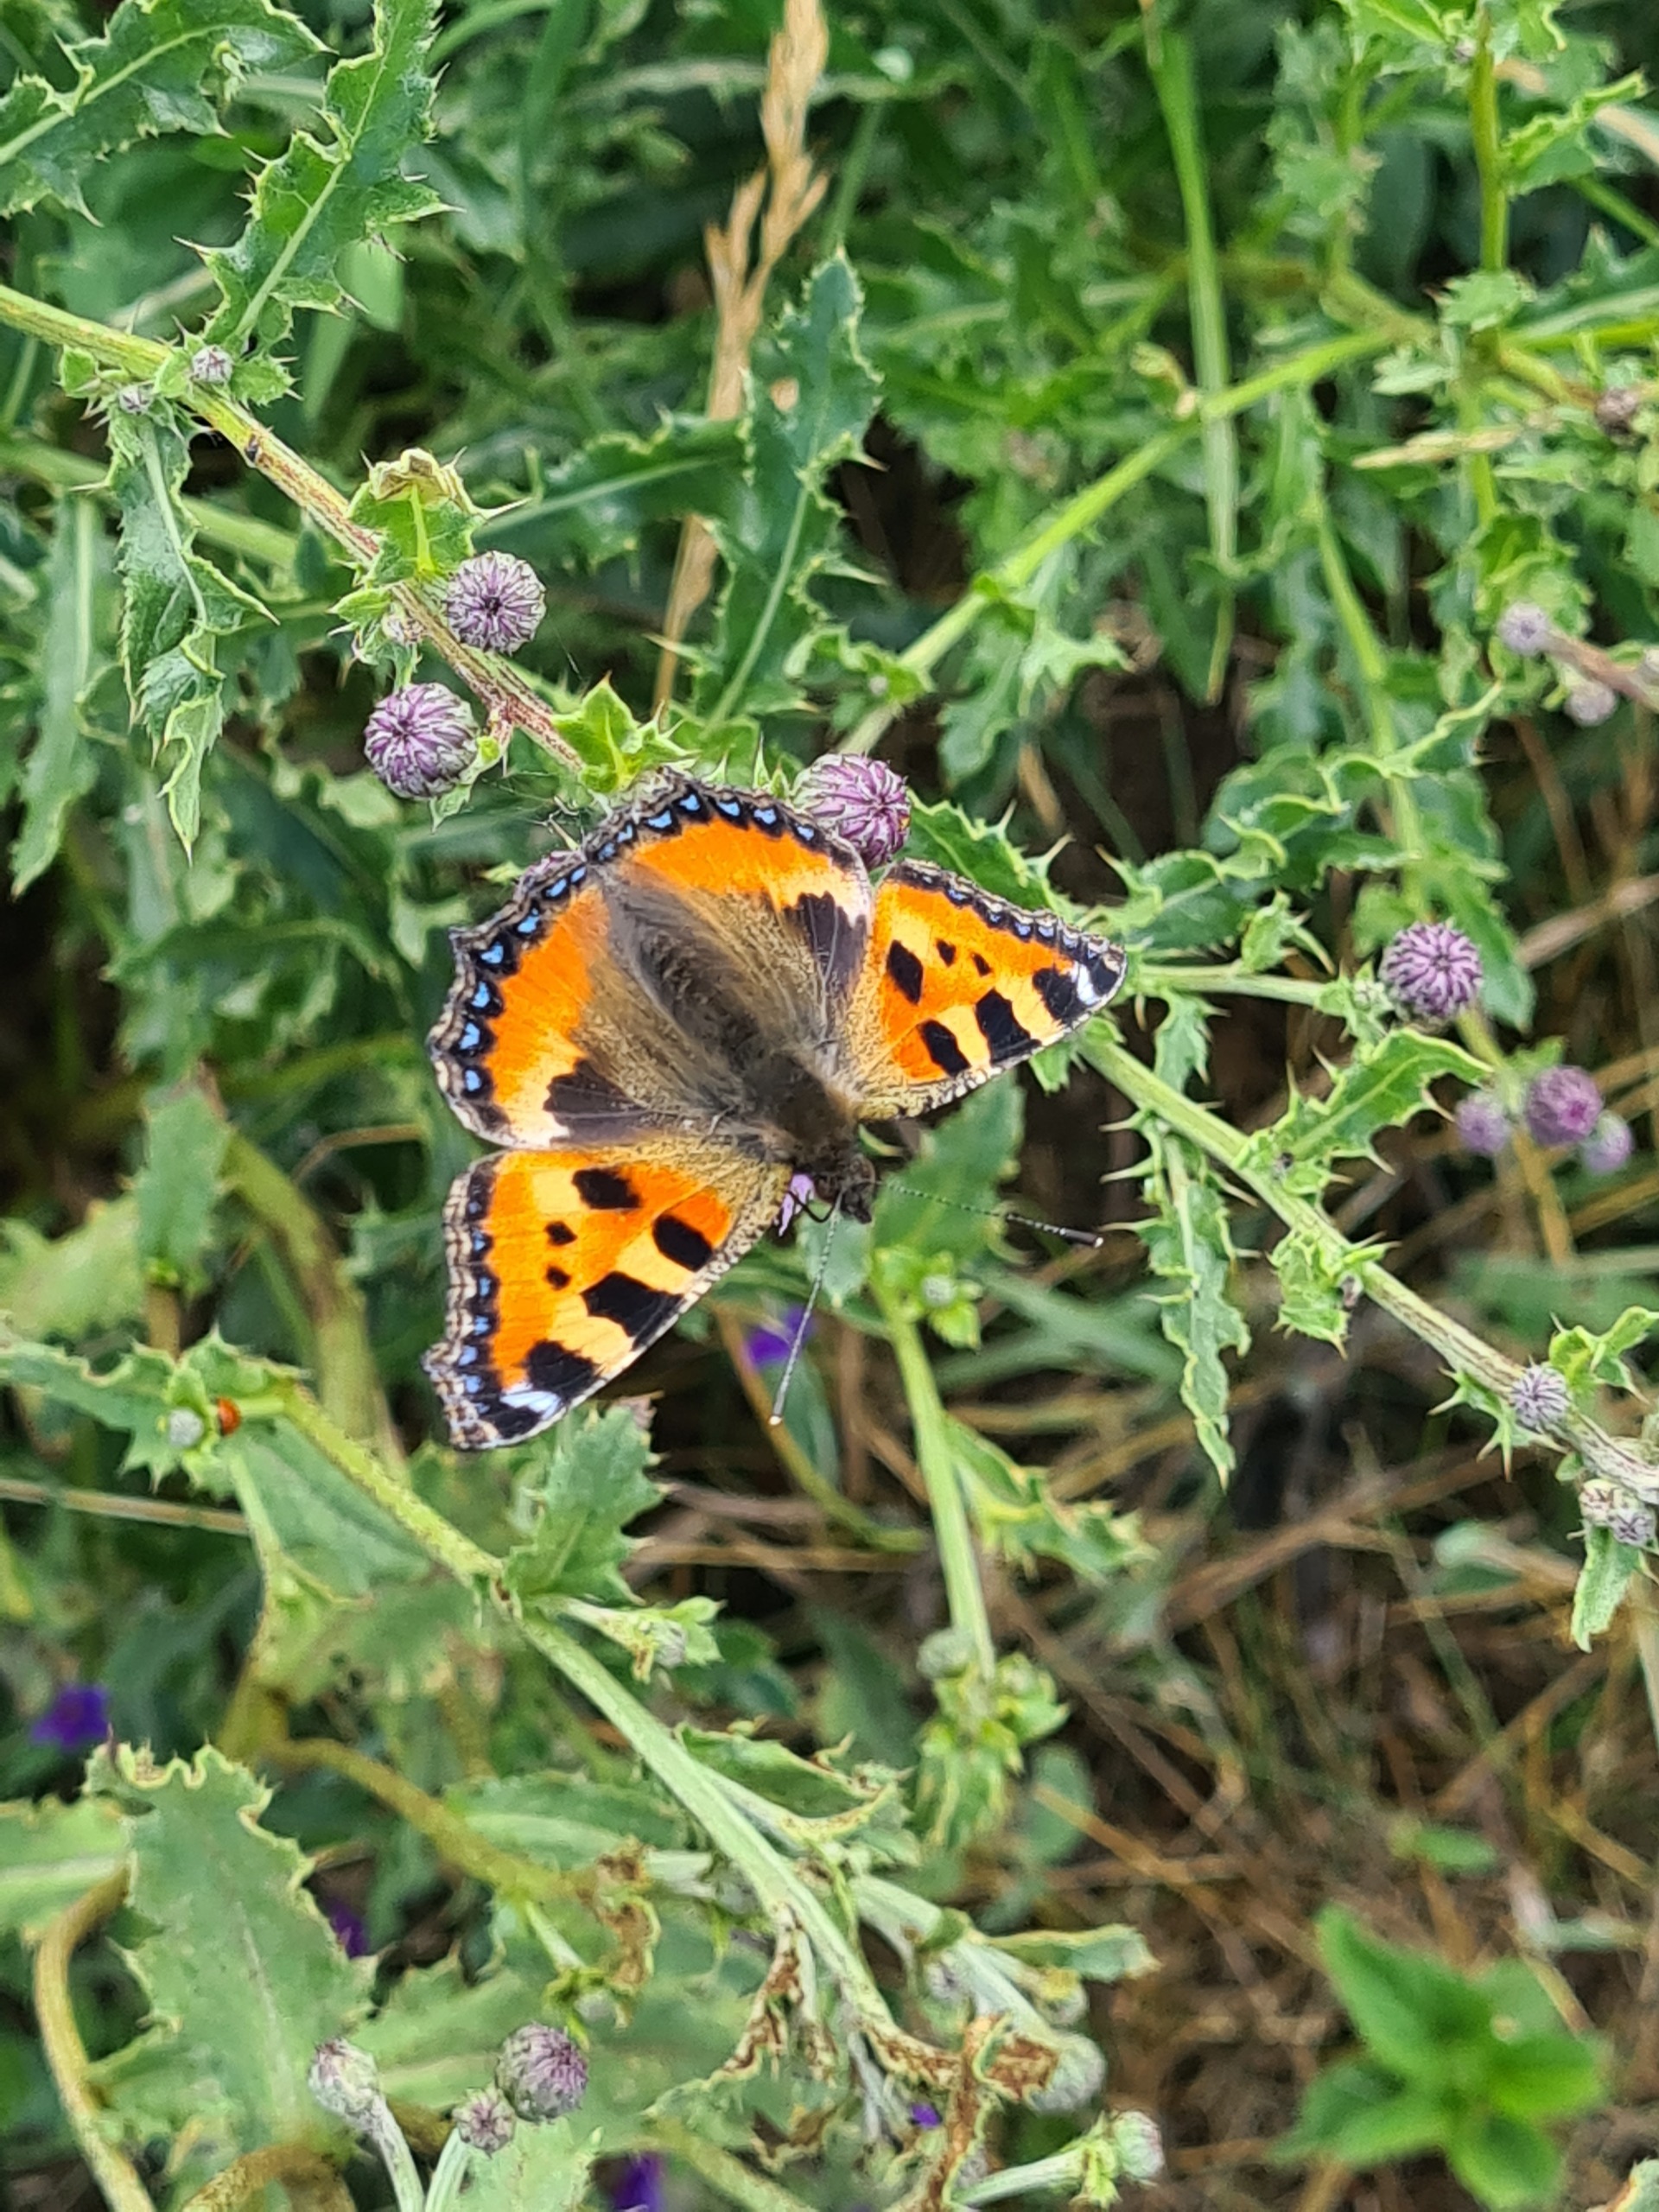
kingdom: Animalia
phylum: Arthropoda
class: Insecta
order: Lepidoptera
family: Nymphalidae
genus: Aglais
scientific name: Aglais urticae
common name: Nældens takvinge
